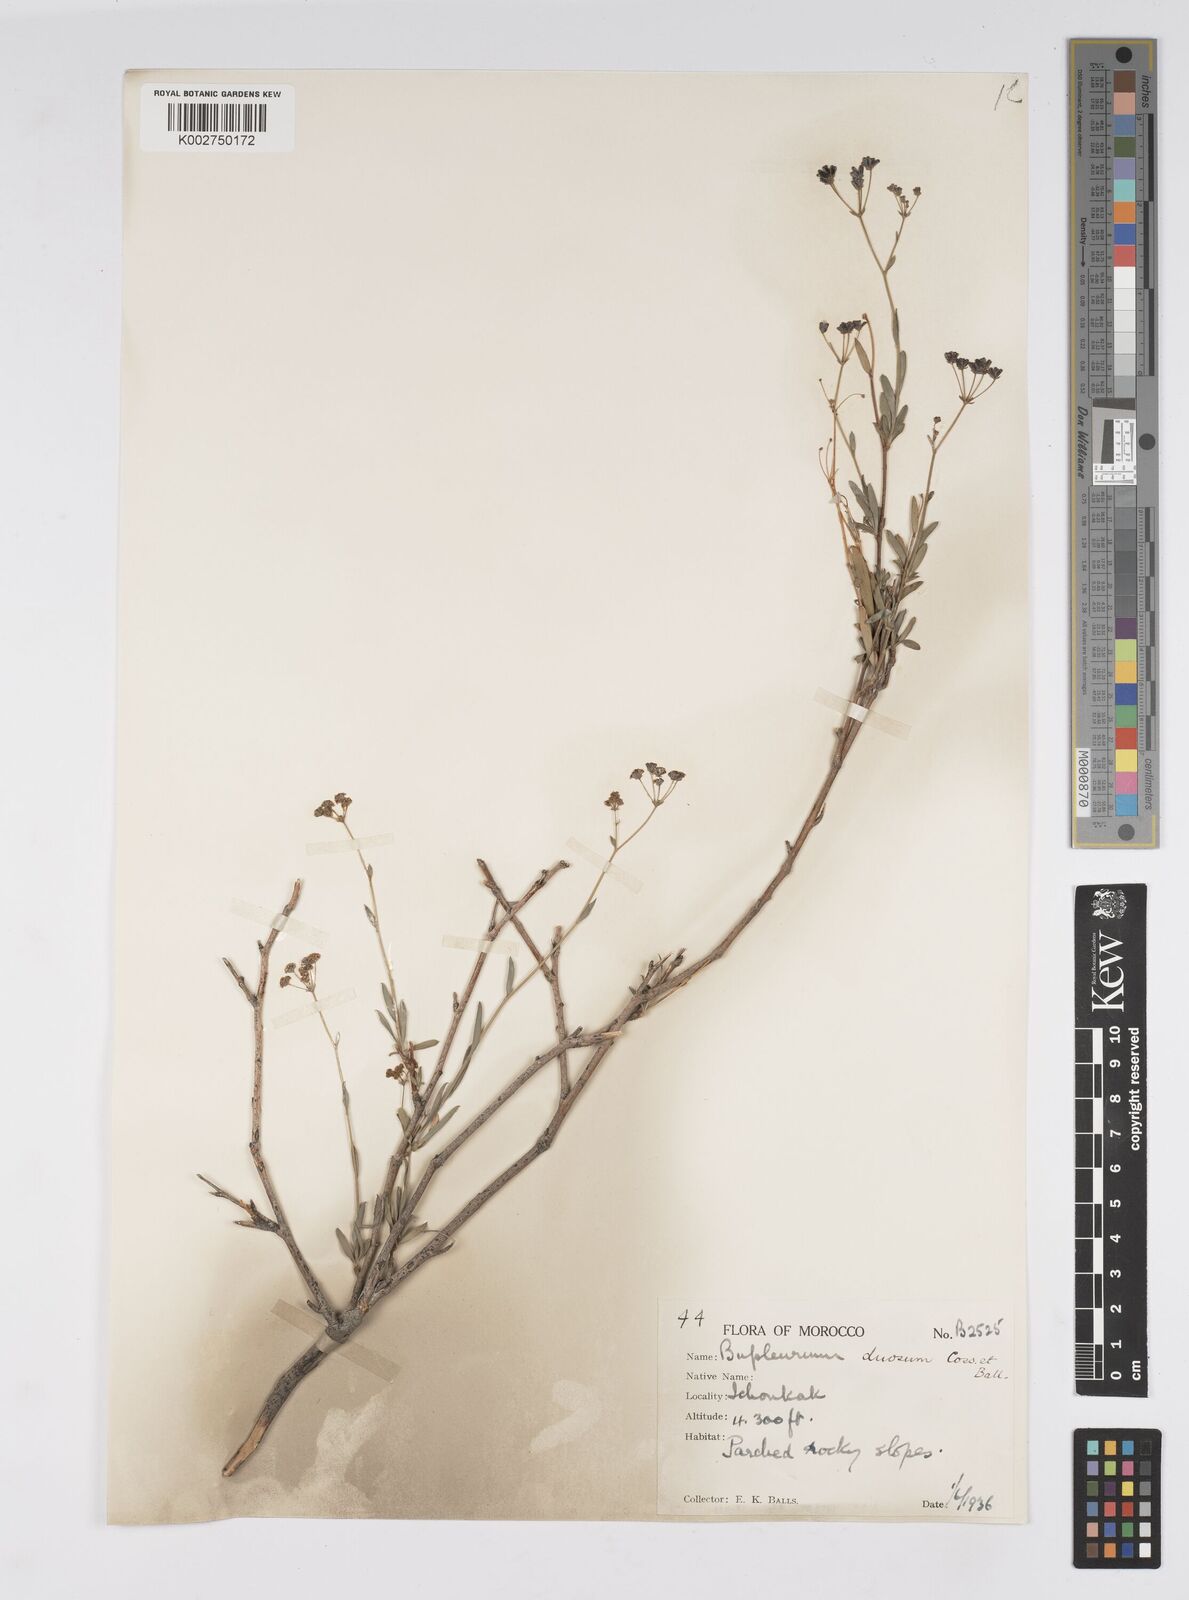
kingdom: Plantae
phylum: Tracheophyta
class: Magnoliopsida
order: Apiales
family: Apiaceae
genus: Bupleurum
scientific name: Bupleurum dumosum
